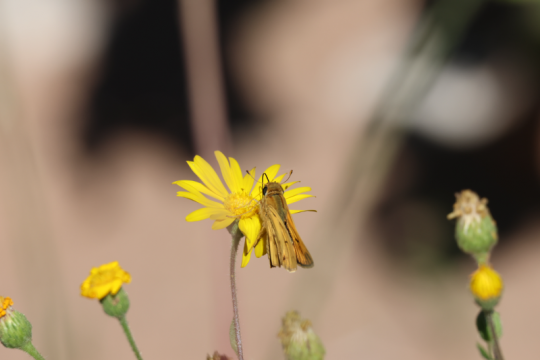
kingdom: Animalia
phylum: Arthropoda
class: Insecta
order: Lepidoptera
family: Hesperiidae
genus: Hylephila
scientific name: Hylephila phyleus
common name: Fiery Skipper
